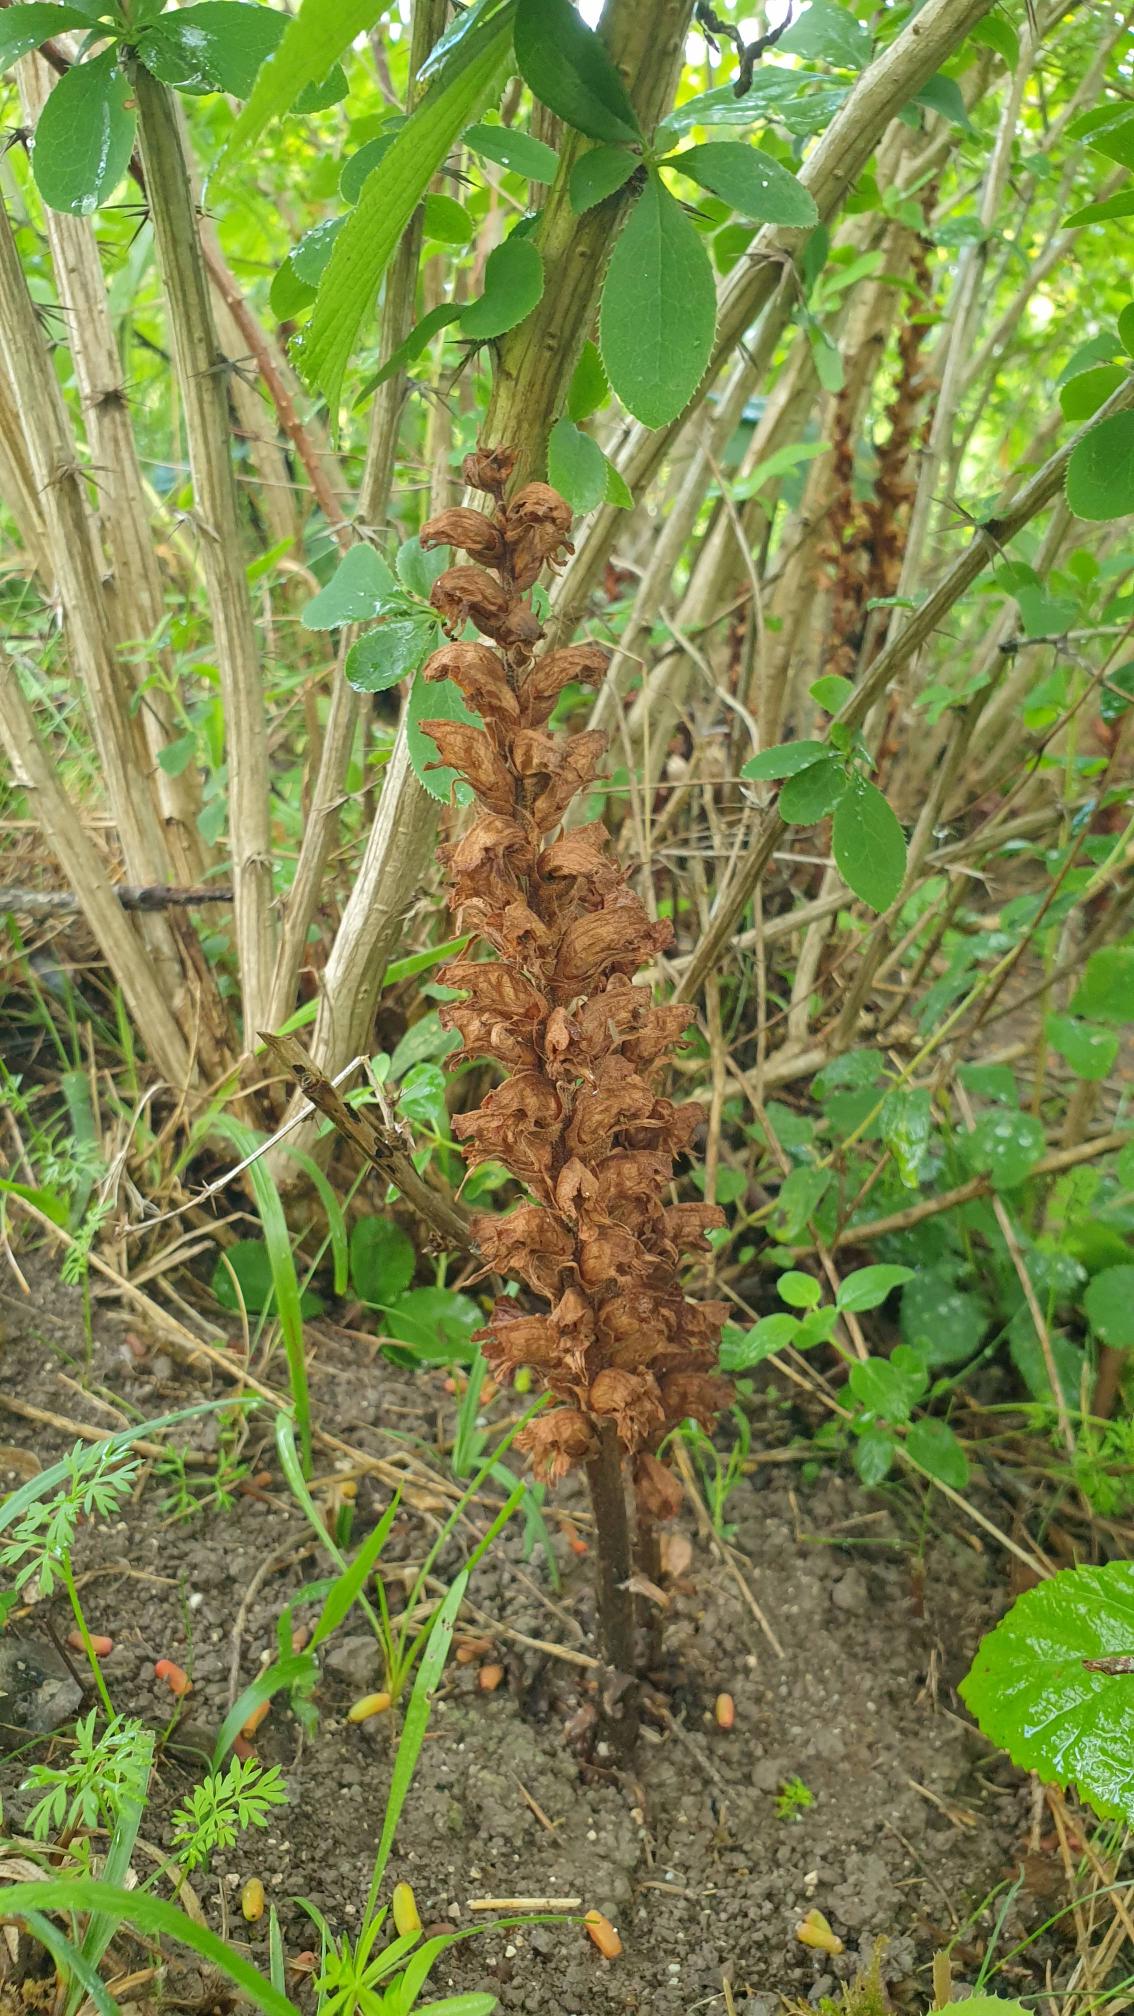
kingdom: Plantae
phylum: Tracheophyta
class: Magnoliopsida
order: Lamiales
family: Orobanchaceae
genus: Orobanche
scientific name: Orobanche lucorum
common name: Berberis-gyvelkvæler
